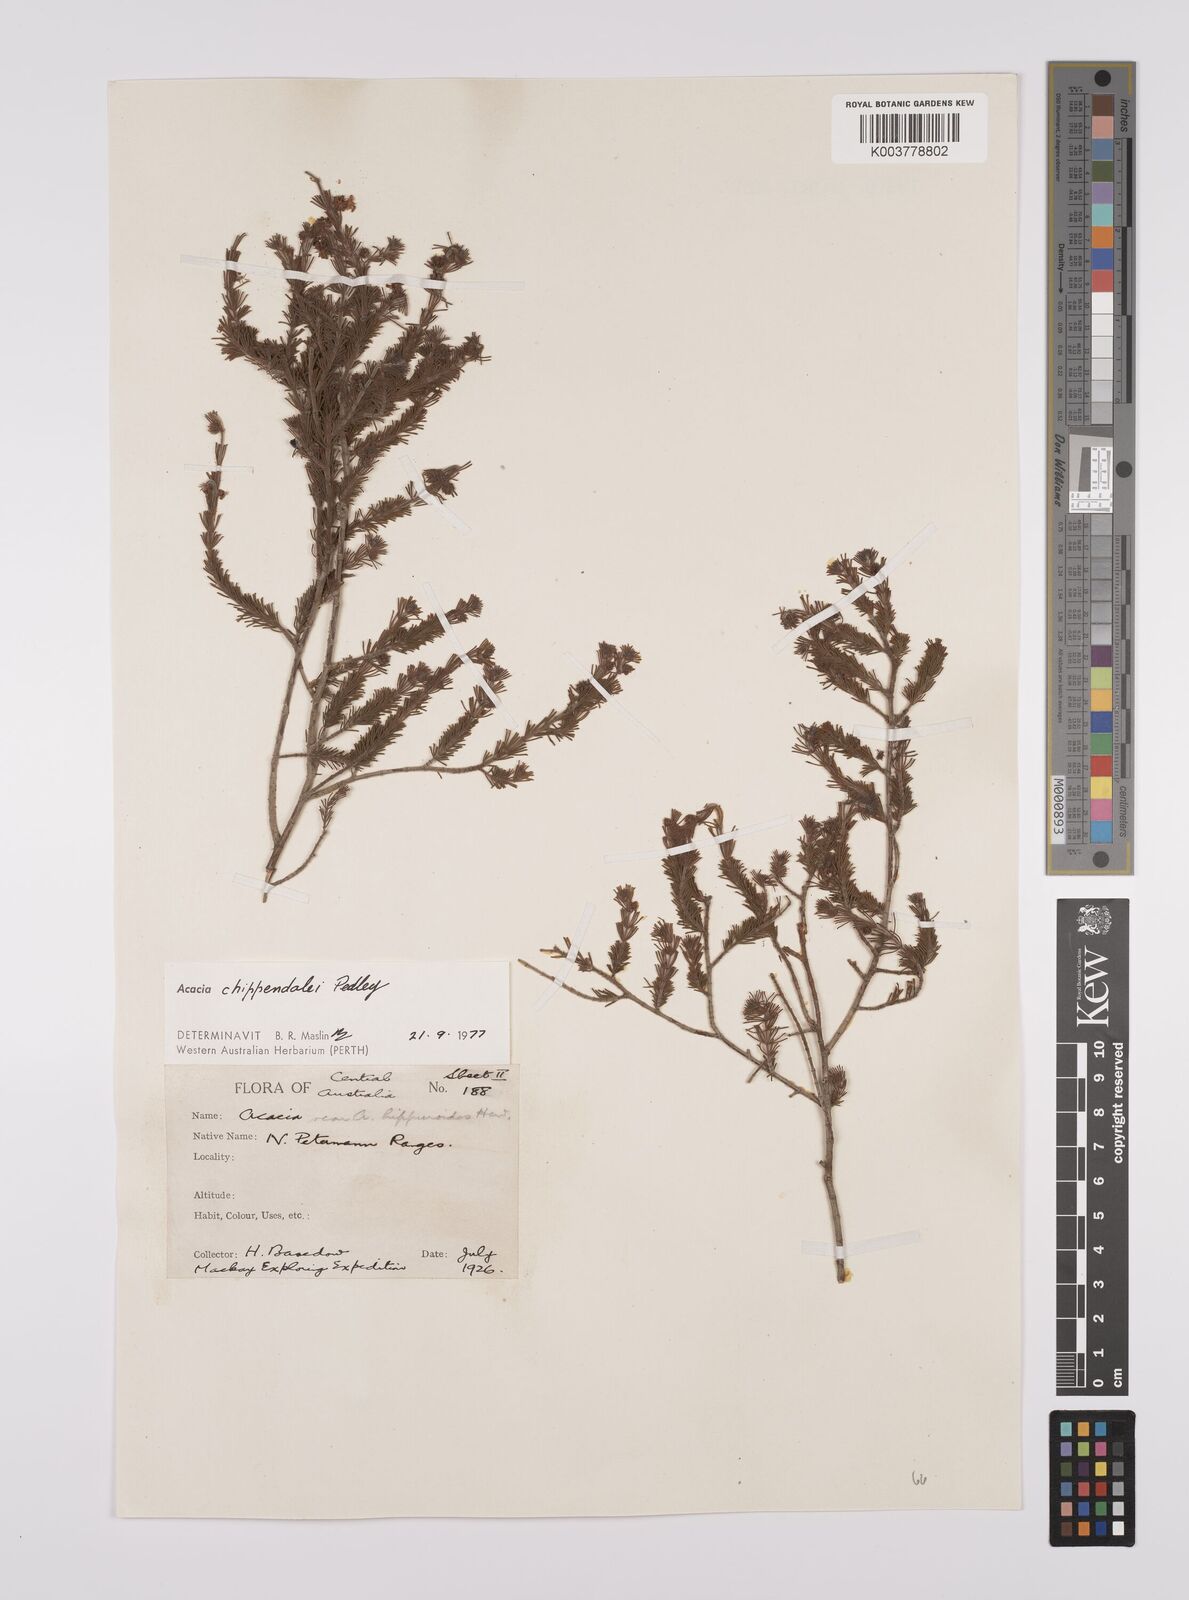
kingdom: Plantae
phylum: Tracheophyta
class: Magnoliopsida
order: Fabales
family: Fabaceae
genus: Acacia
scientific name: Acacia chippendalei
